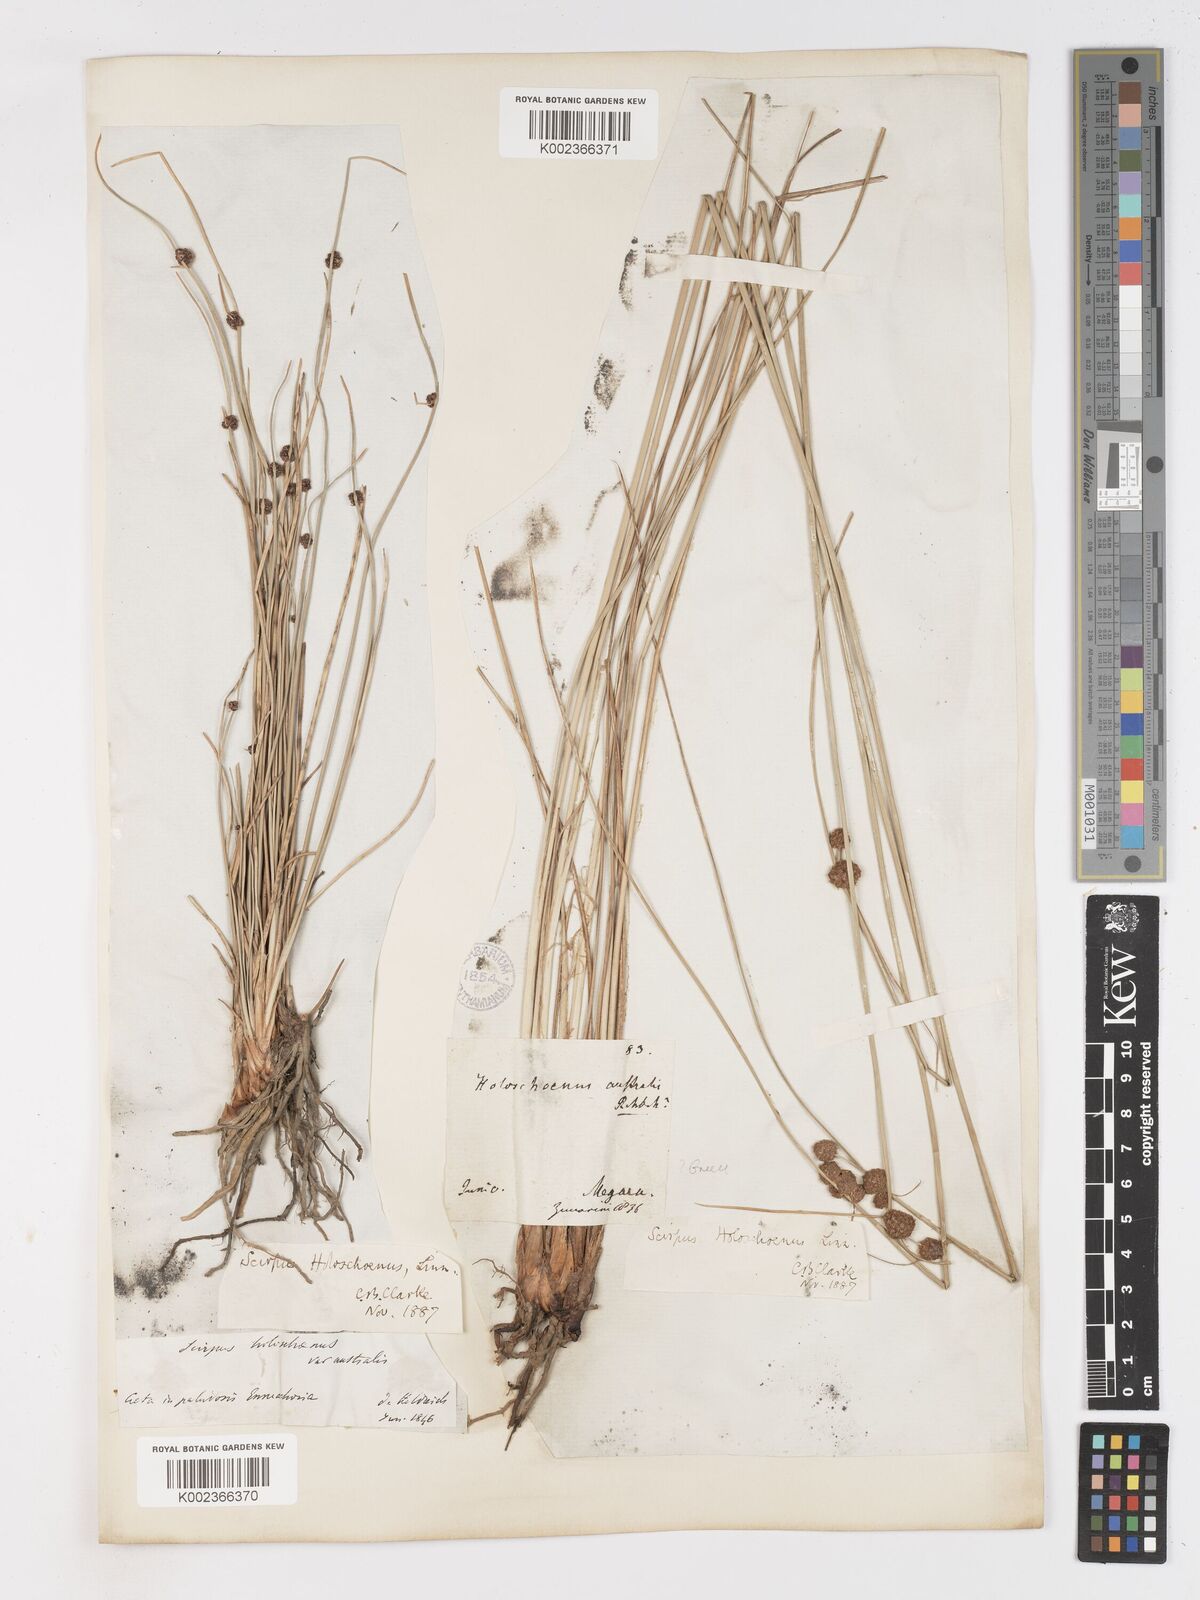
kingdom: Plantae
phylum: Tracheophyta
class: Liliopsida
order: Poales
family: Cyperaceae
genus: Scirpoides
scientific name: Scirpoides holoschoenus
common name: Round-headed club-rush
